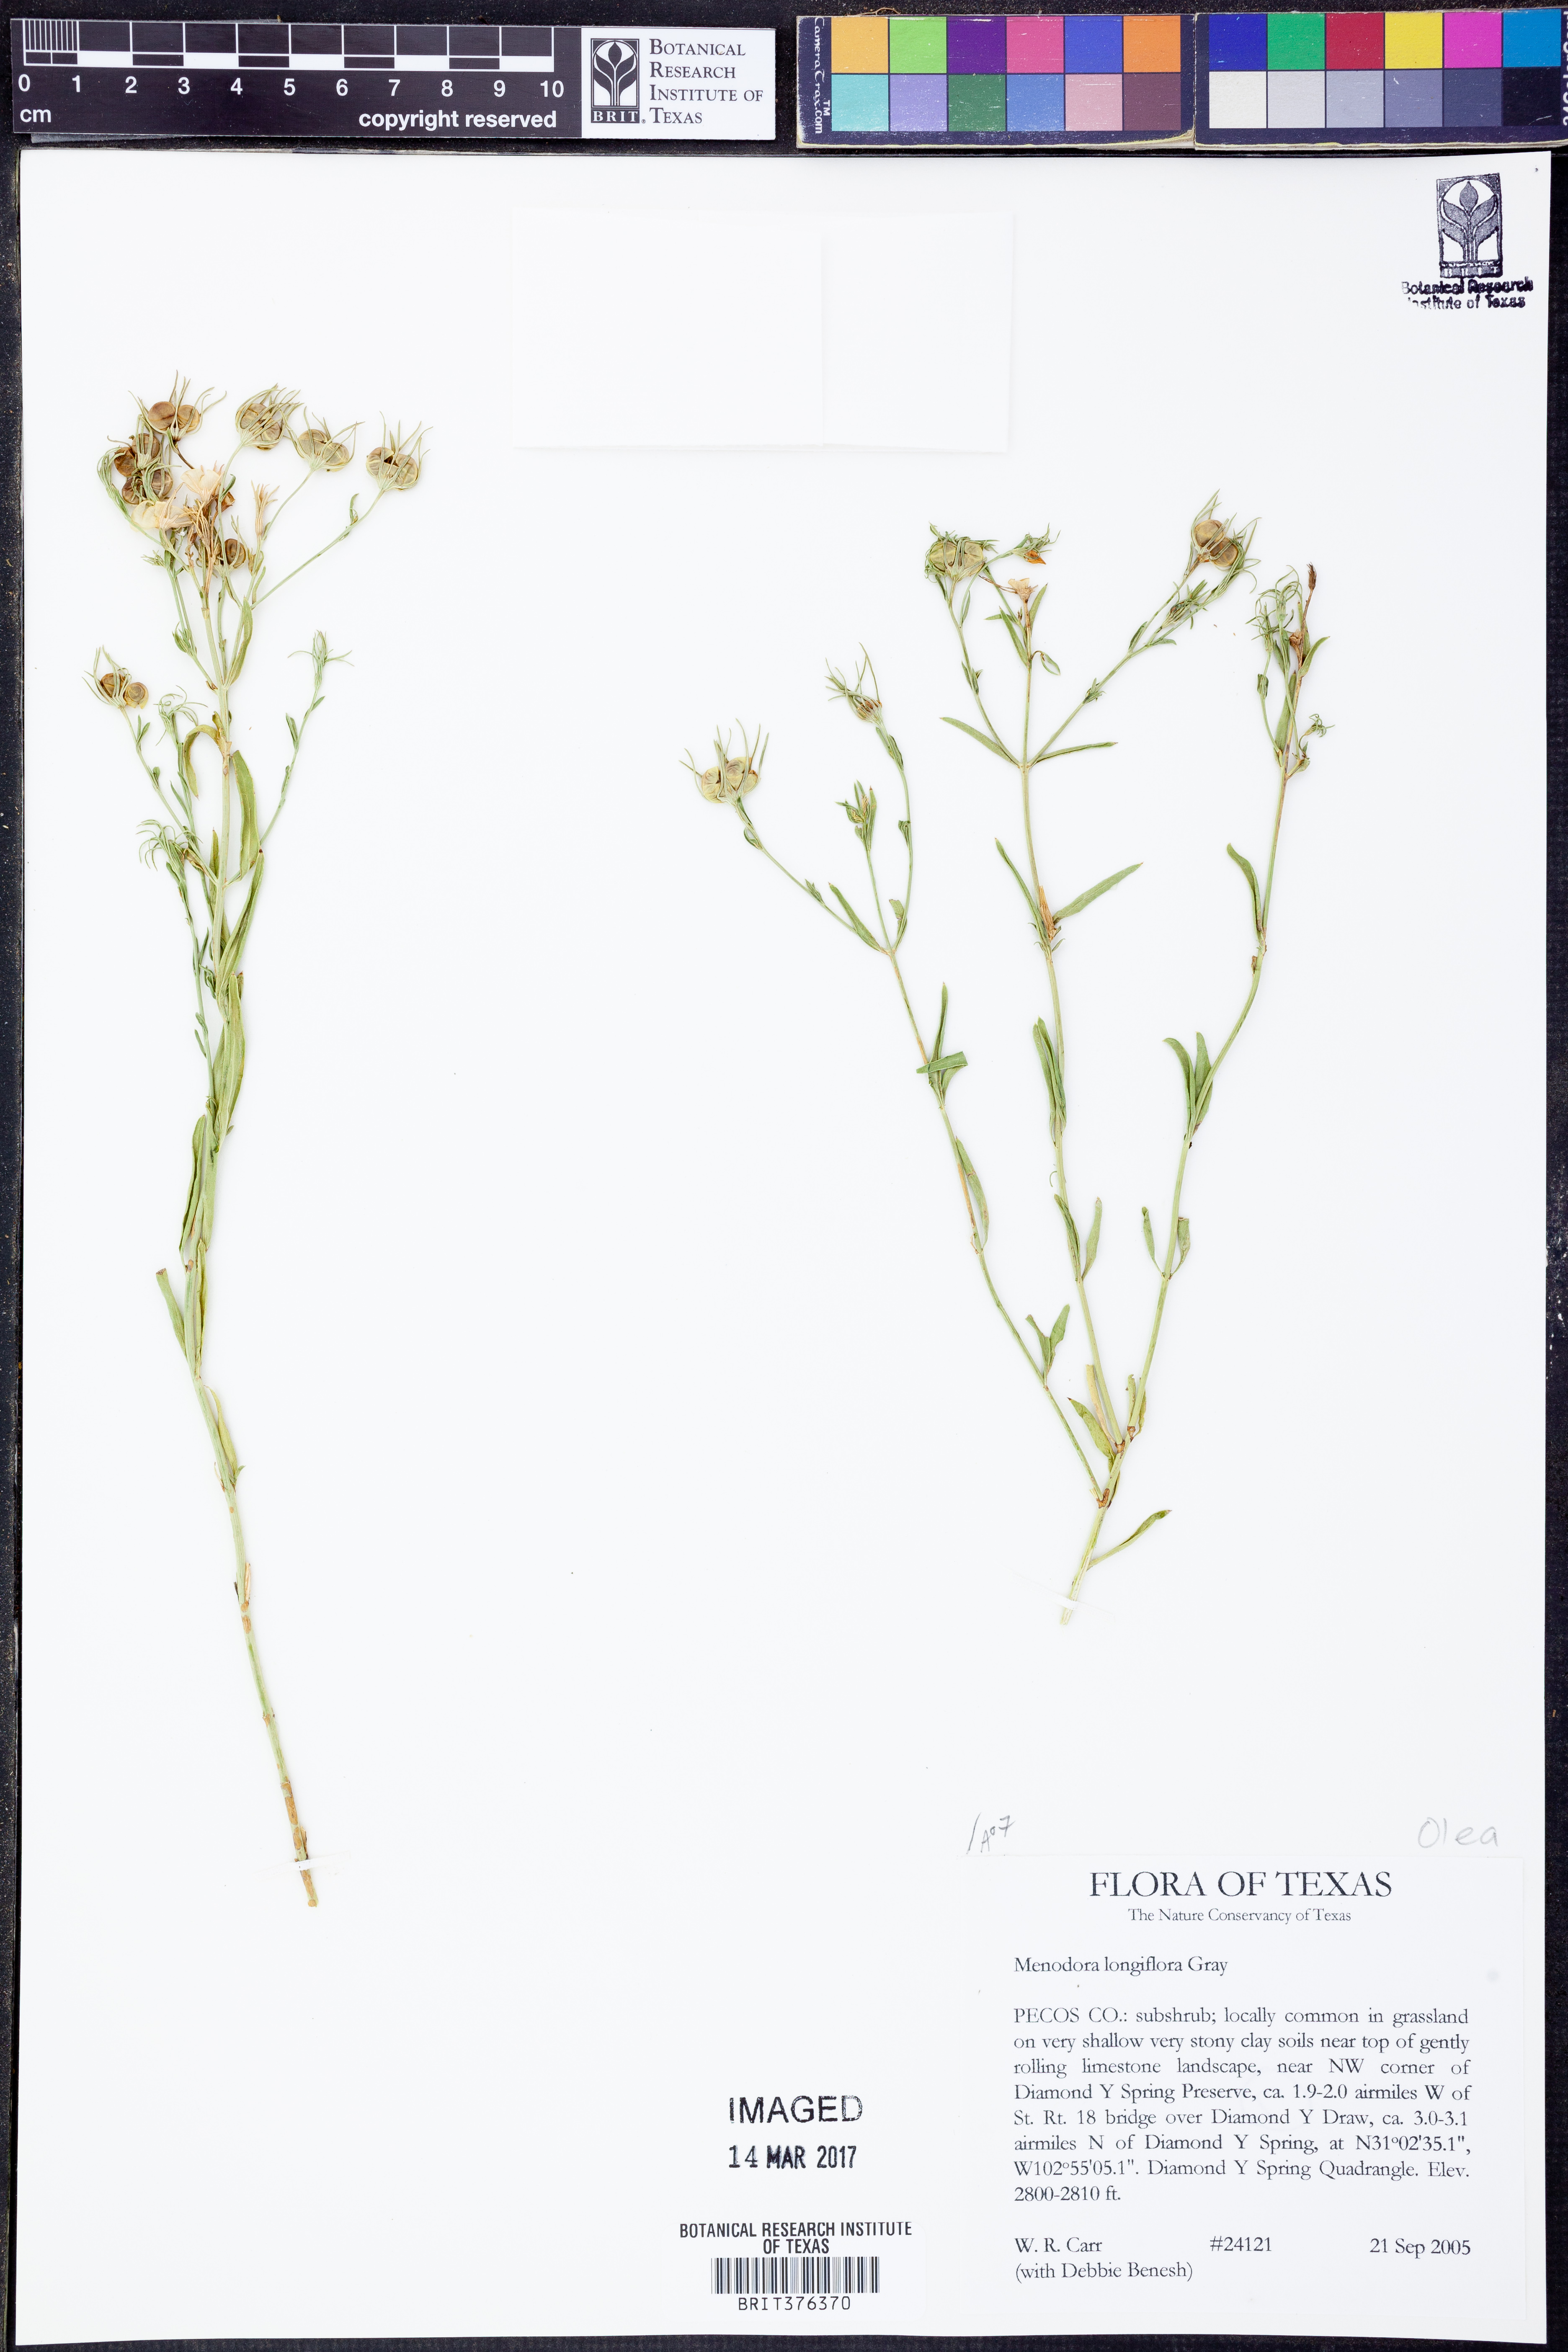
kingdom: Plantae
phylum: Tracheophyta
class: Magnoliopsida
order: Lamiales
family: Oleaceae
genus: Menodora
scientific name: Menodora longiflora
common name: Showy menodora
